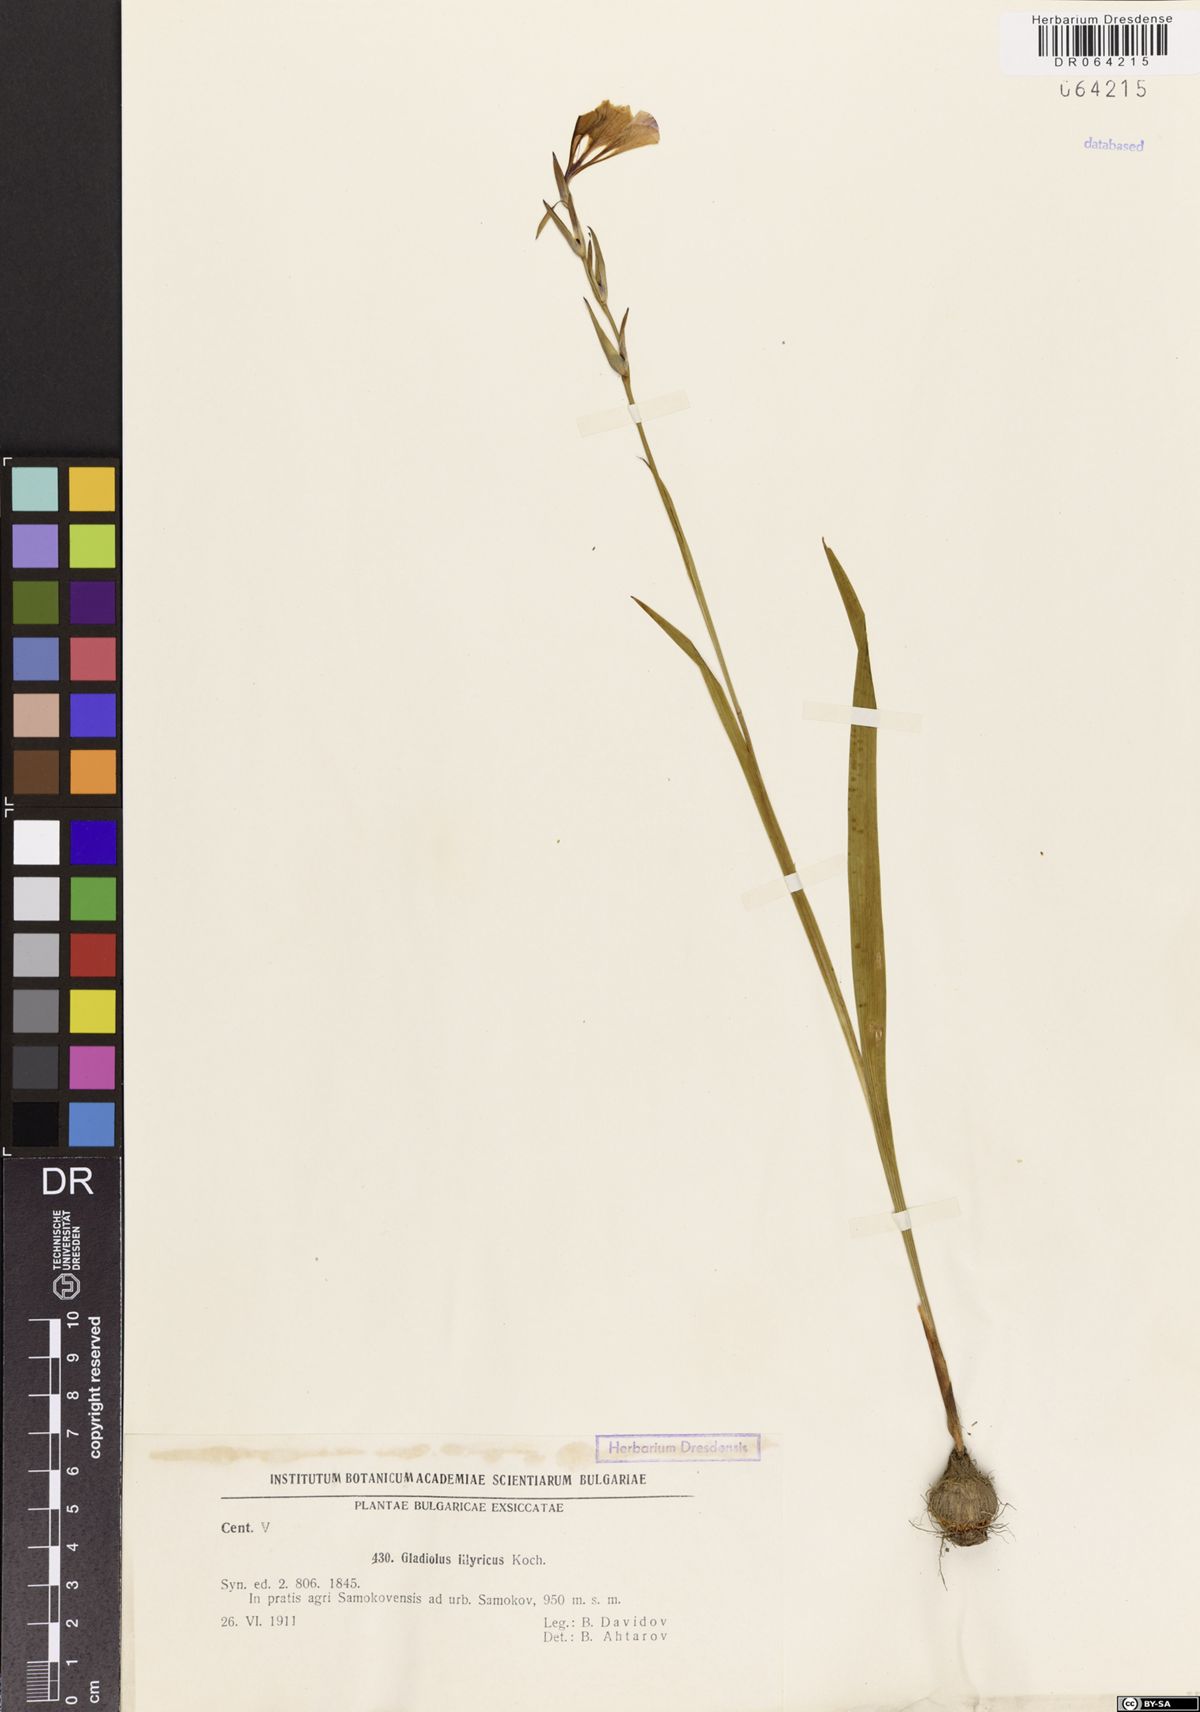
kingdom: Plantae
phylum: Tracheophyta
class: Liliopsida
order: Asparagales
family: Iridaceae
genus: Gladiolus
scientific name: Gladiolus illyricus
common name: Wild gladiolus
